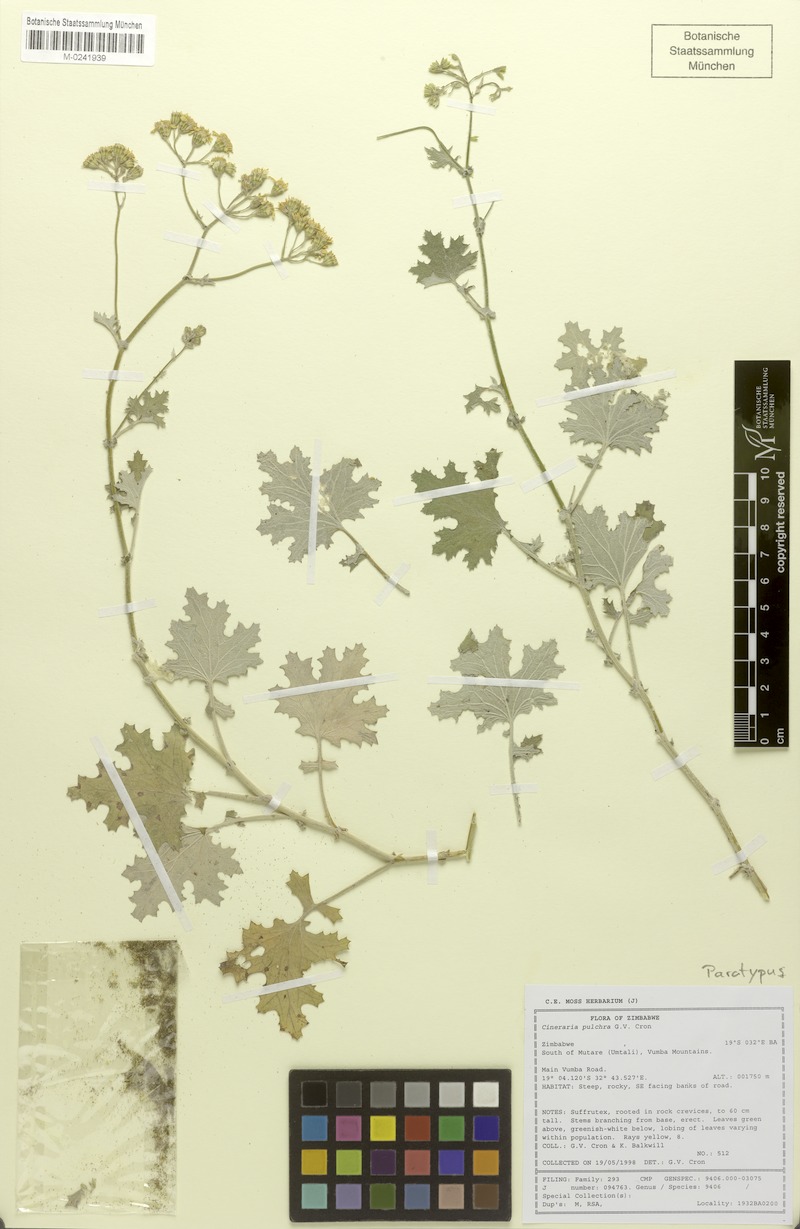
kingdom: Plantae
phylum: Tracheophyta
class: Magnoliopsida
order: Asterales
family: Asteraceae
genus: Cineraria
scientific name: Cineraria pulchra
